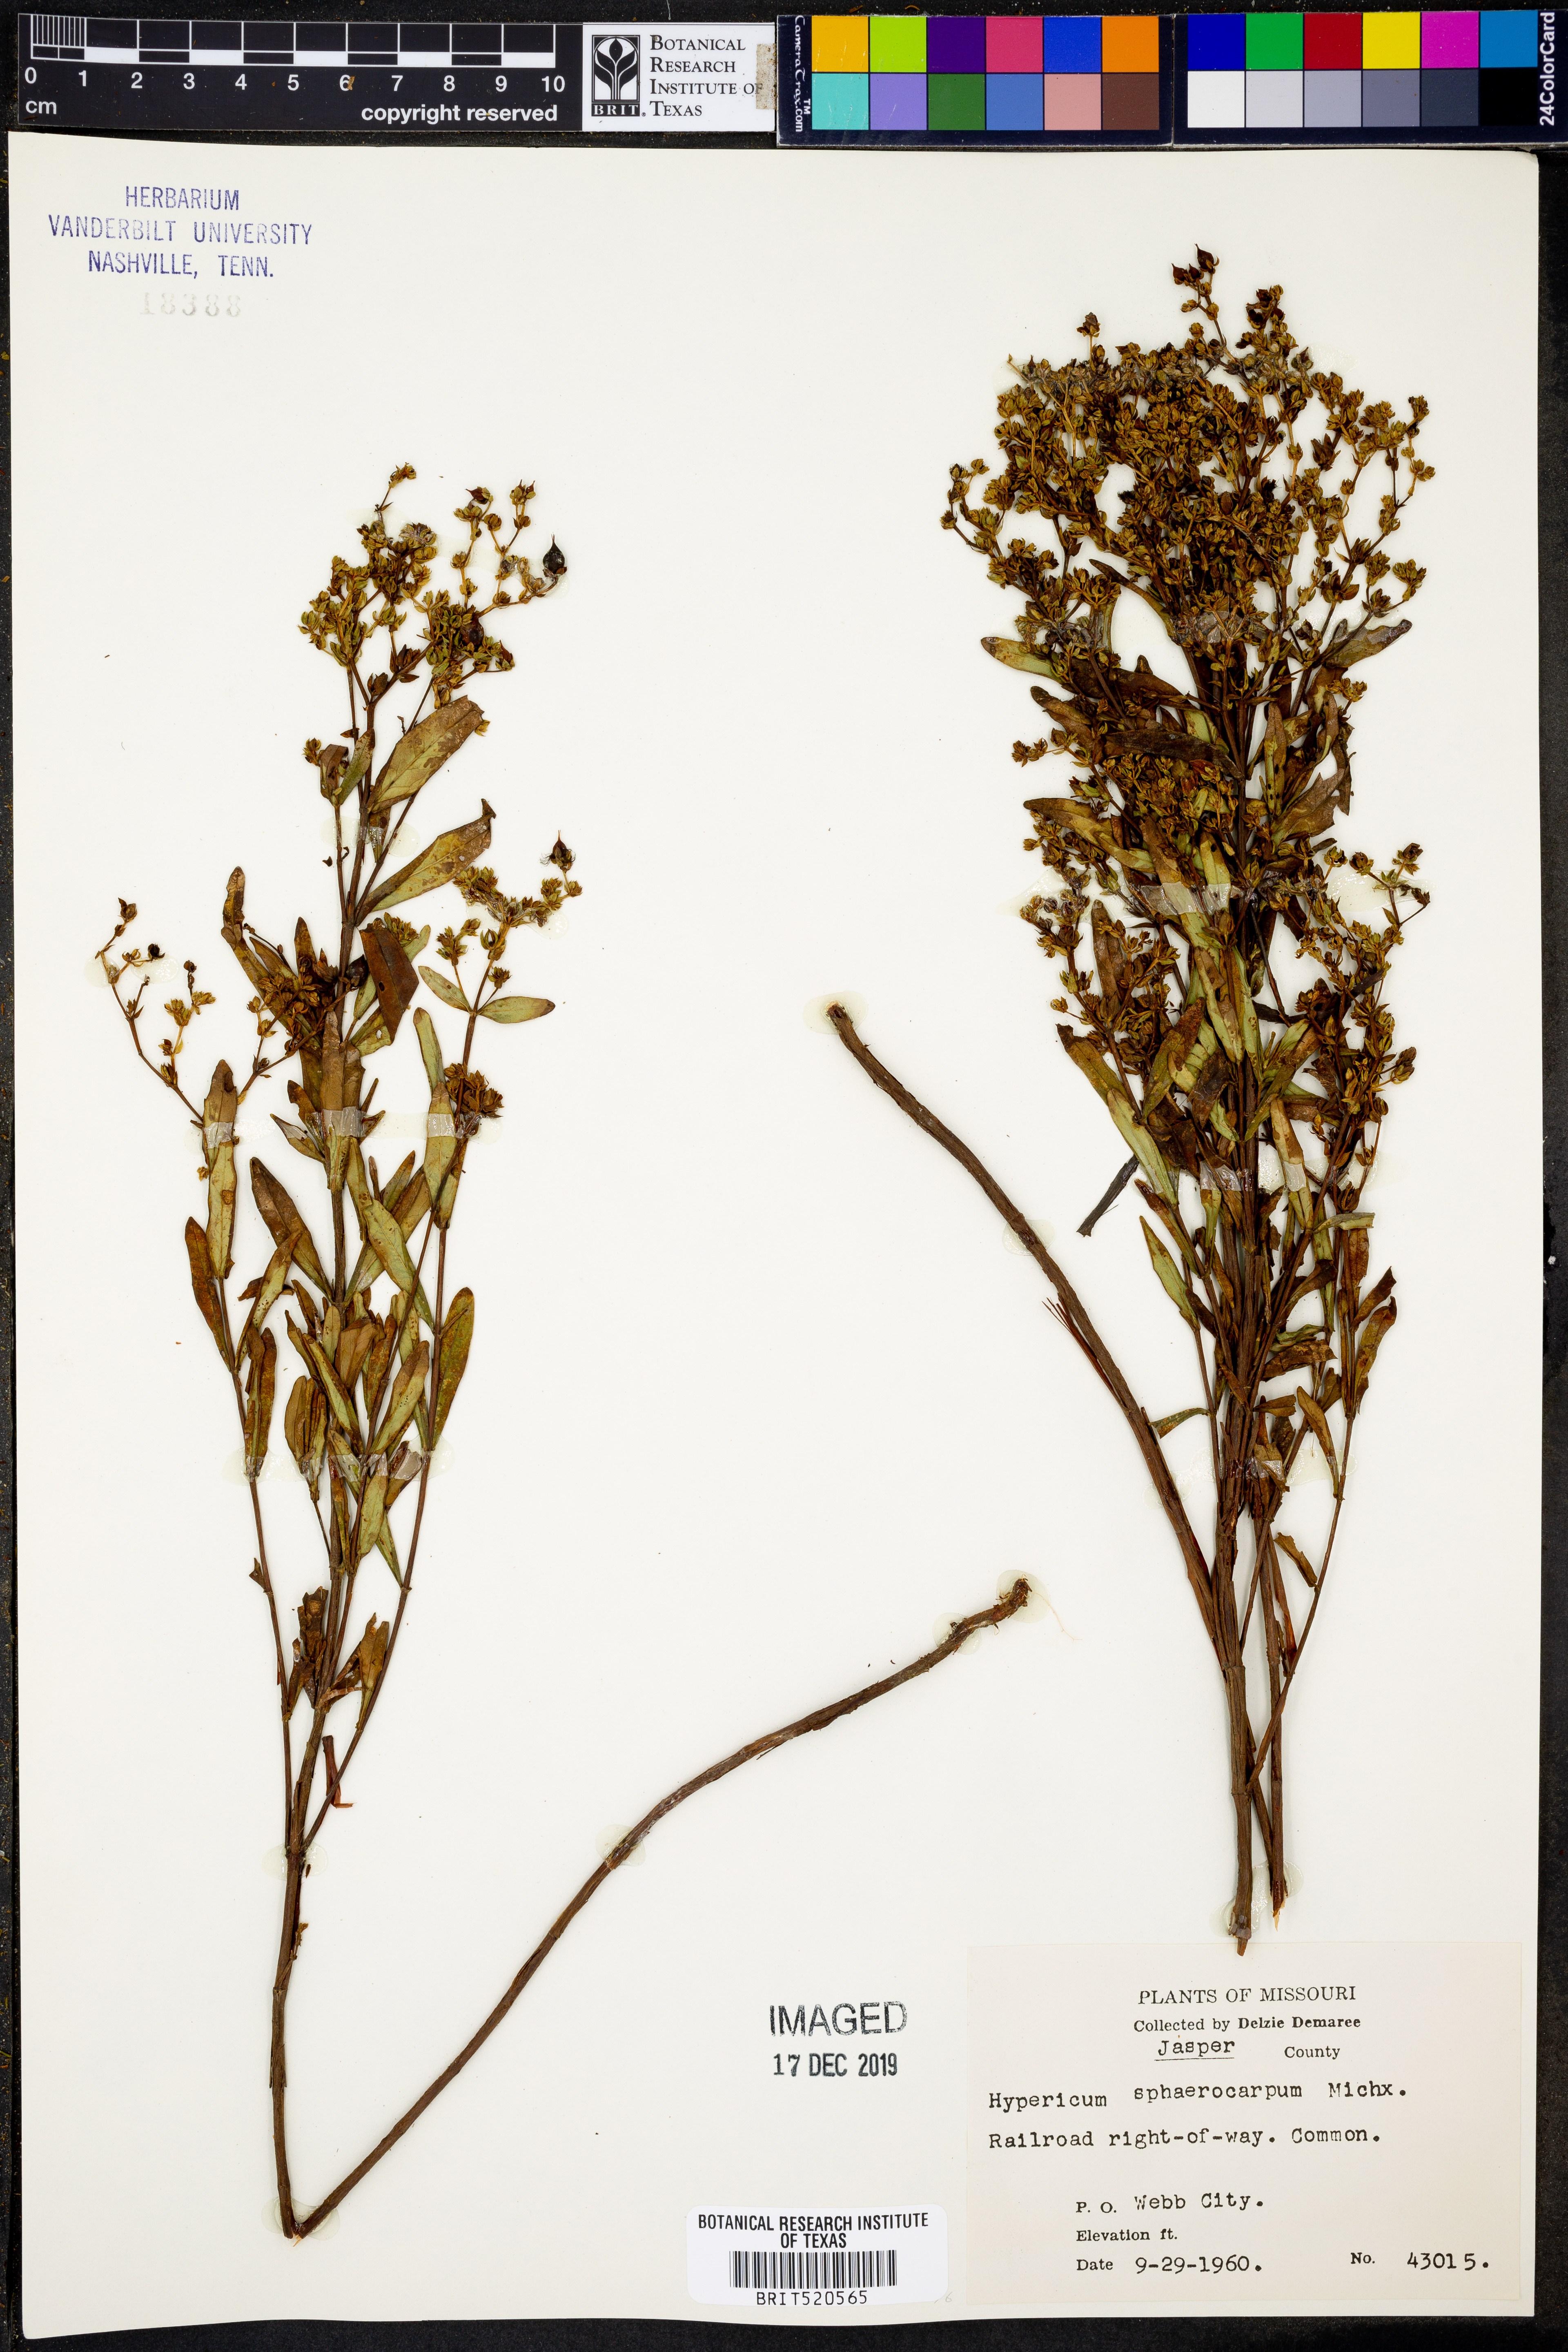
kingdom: Plantae
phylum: Tracheophyta
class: Magnoliopsida
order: Malpighiales
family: Hypericaceae
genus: Hypericum
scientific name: Hypericum sphaerocarpum
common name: Round-fruited st. john's-wort
